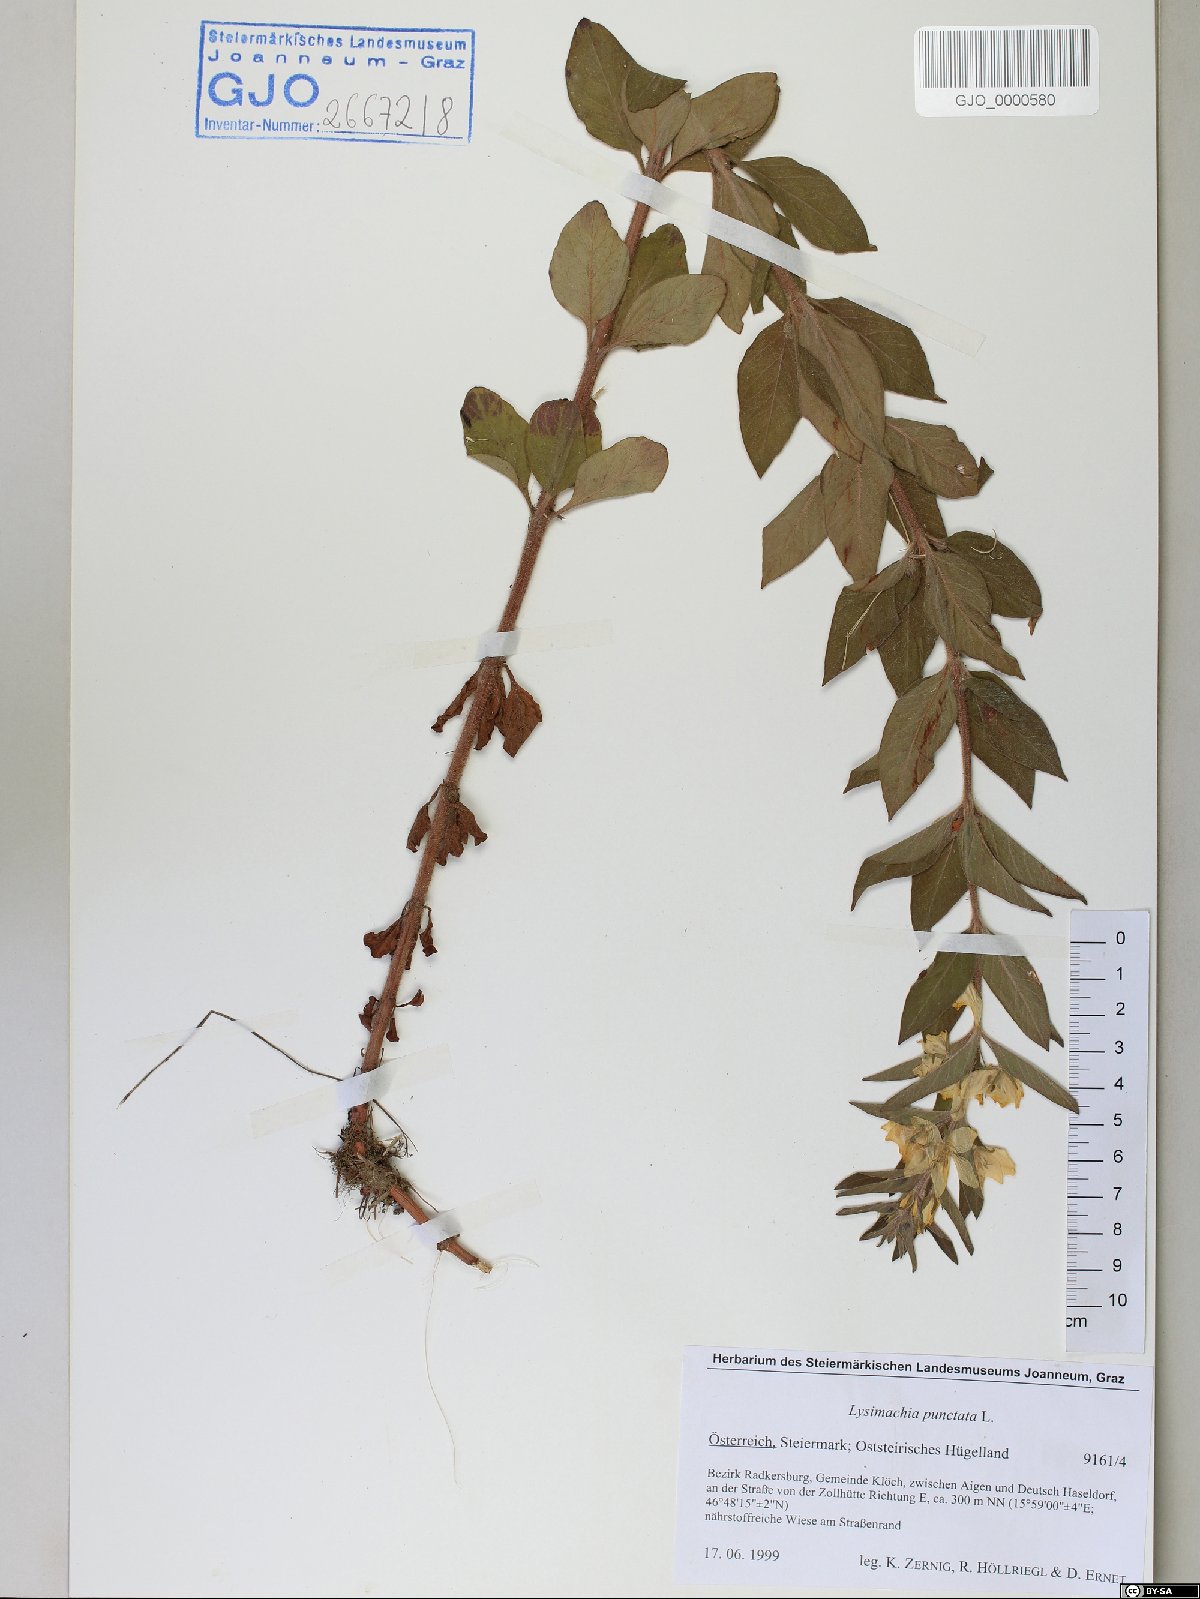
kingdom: Plantae
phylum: Tracheophyta
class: Magnoliopsida
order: Ericales
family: Primulaceae
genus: Lysimachia
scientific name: Lysimachia punctata
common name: Dotted loosestrife
